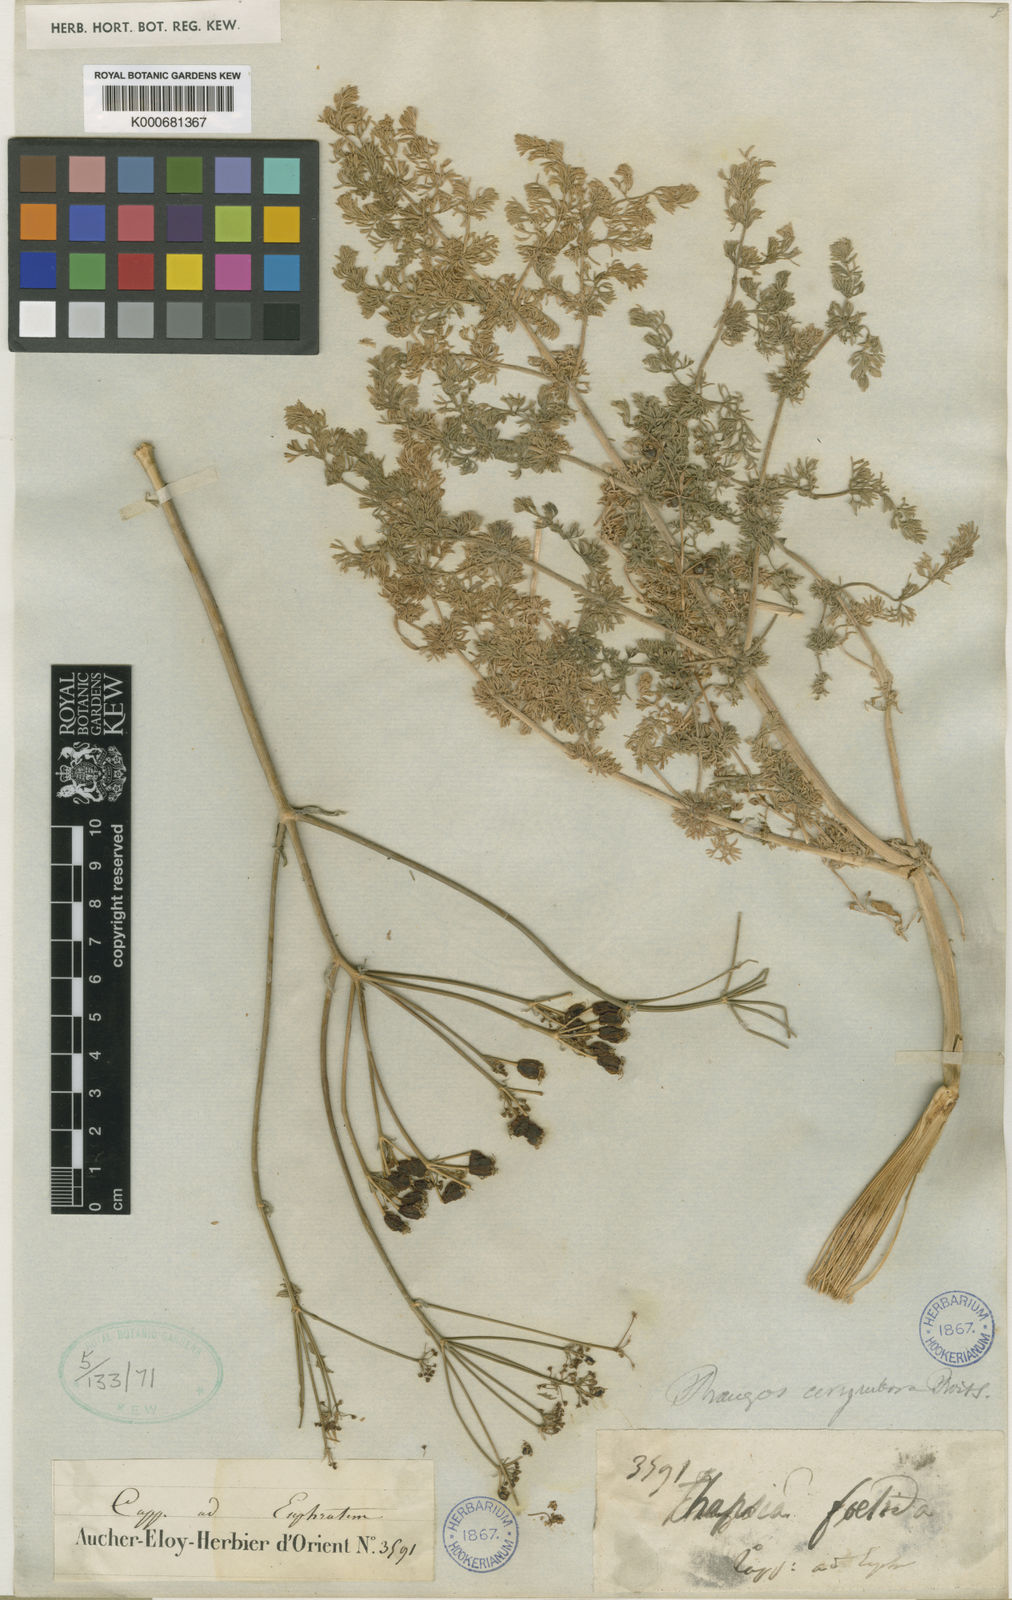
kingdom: Plantae
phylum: Tracheophyta
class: Magnoliopsida
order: Apiales
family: Apiaceae
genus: Prangos
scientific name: Prangos corymbosa
